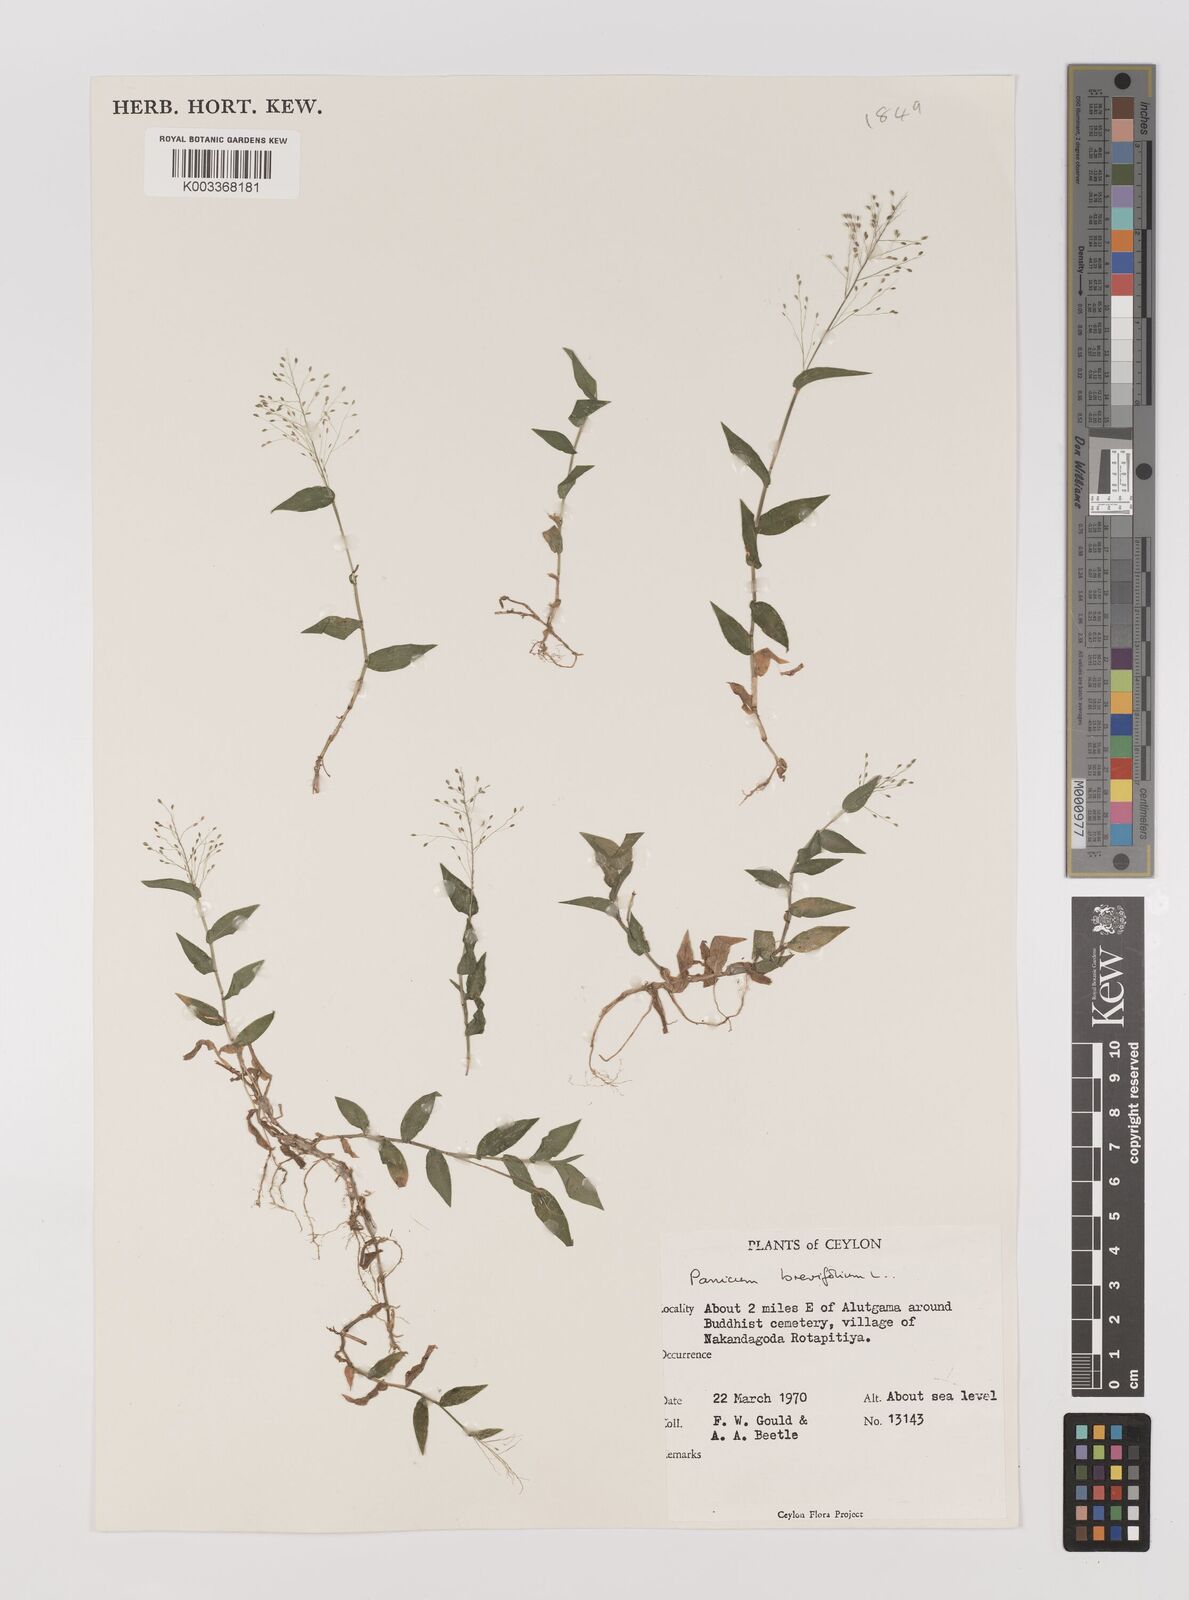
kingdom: Plantae
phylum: Tracheophyta
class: Liliopsida
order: Poales
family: Poaceae
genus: Panicum
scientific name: Panicum brevifolium
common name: Shortleaf panic grass
